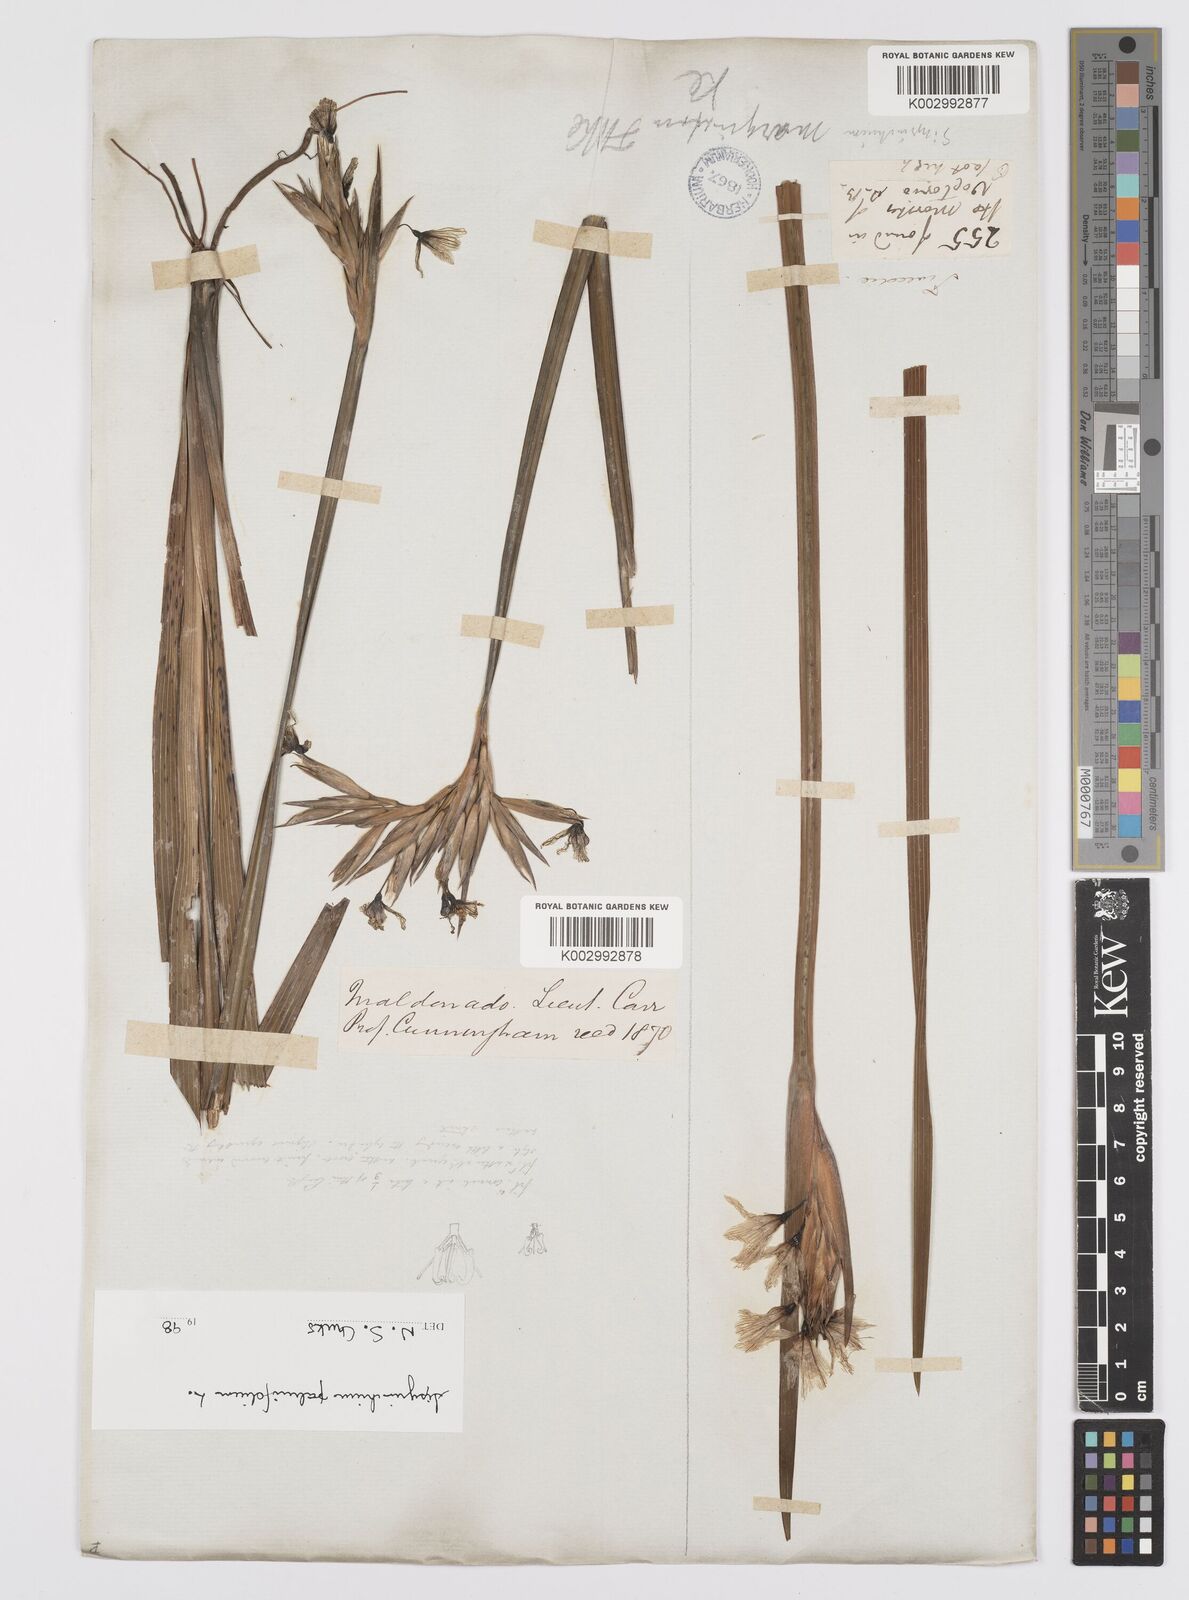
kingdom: Plantae
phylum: Tracheophyta
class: Liliopsida
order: Asparagales
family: Iridaceae
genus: Sisyrinchium
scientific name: Sisyrinchium palmifolium
